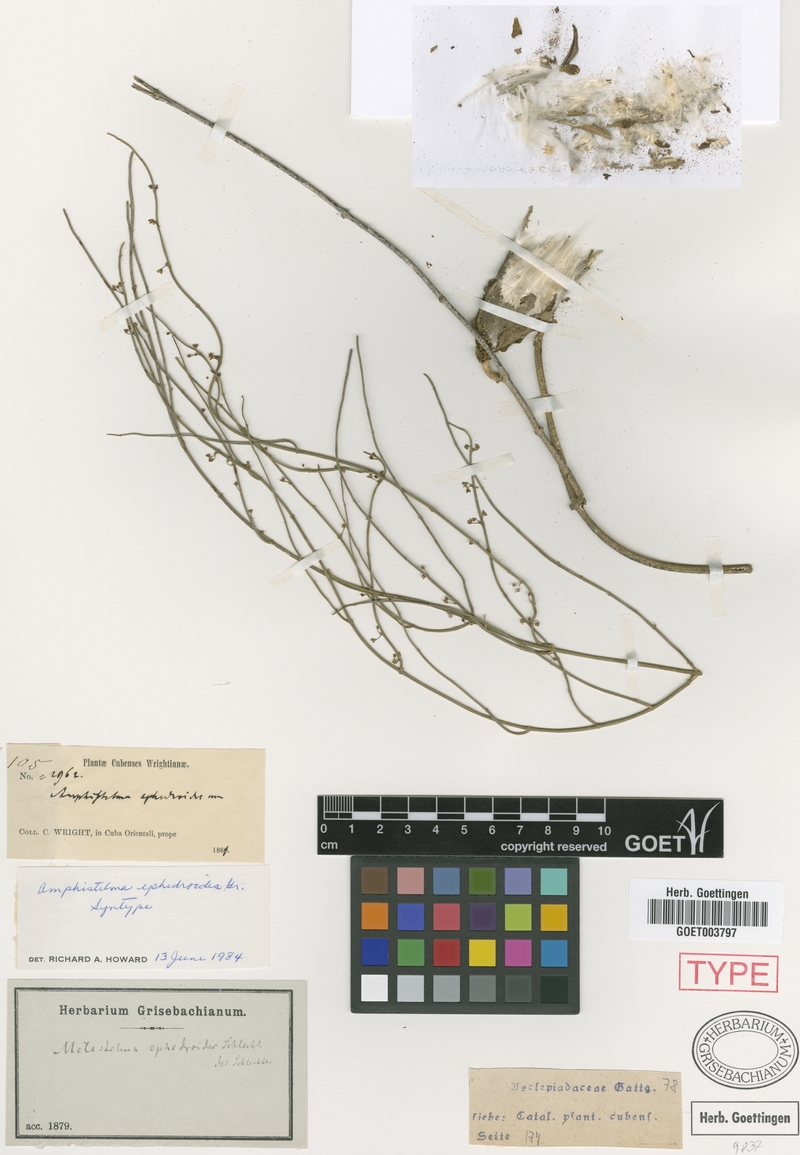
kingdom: Plantae
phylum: Tracheophyta
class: Magnoliopsida
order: Gentianales
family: Apocynaceae
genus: Orthosia
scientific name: Orthosia scoparia
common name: Leafless swallow-wort
